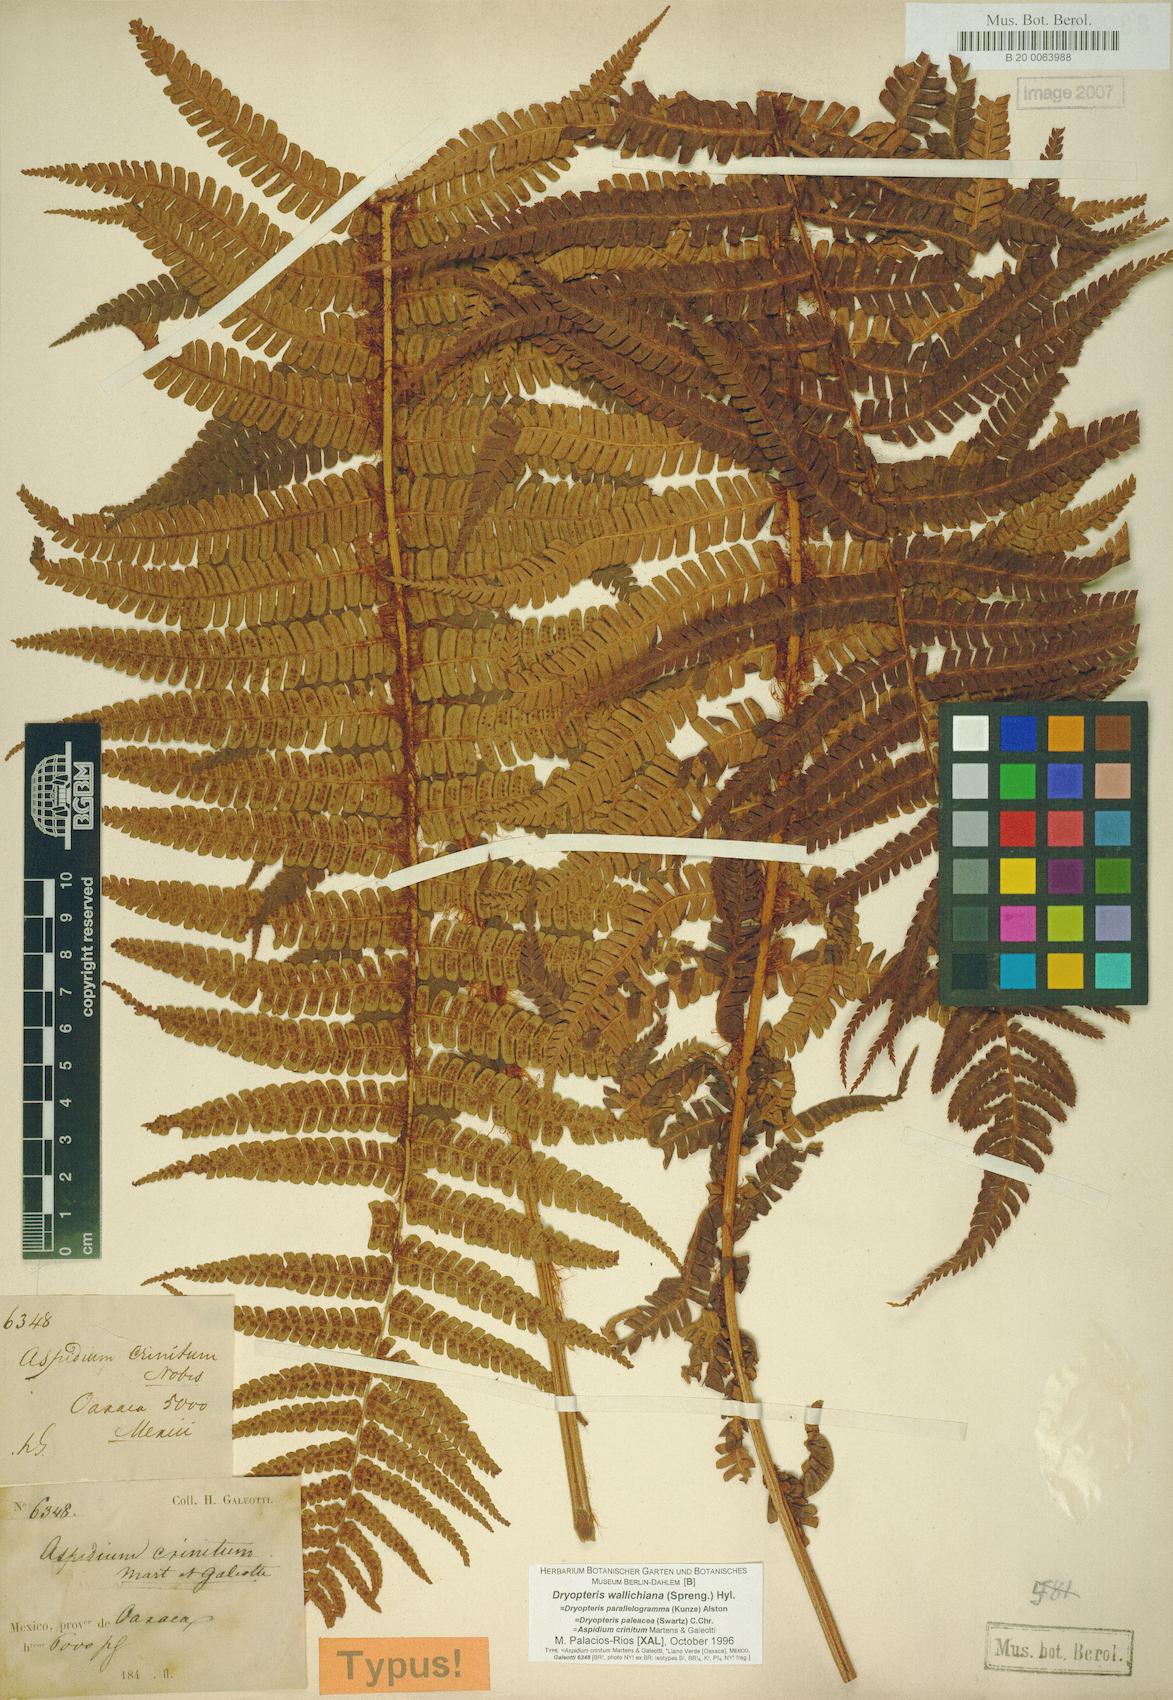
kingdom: Plantae
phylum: Tracheophyta
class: Polypodiopsida
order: Polypodiales
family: Dryopteridaceae
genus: Dryopteris
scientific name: Dryopteris wallichiana
